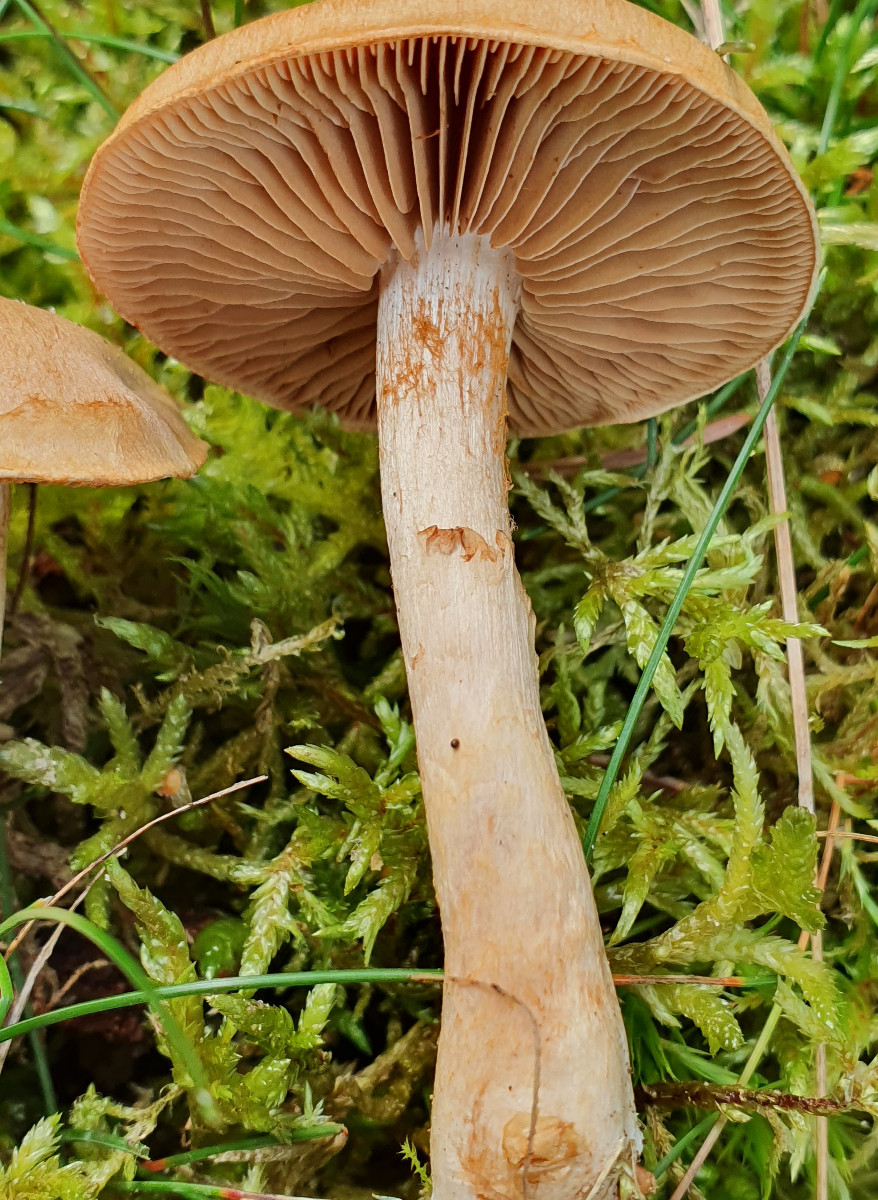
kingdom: Fungi
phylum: Basidiomycota
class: Agaricomycetes
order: Agaricales
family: Cortinariaceae
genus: Cortinarius
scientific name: Cortinarius caninus
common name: gran-slørhat
